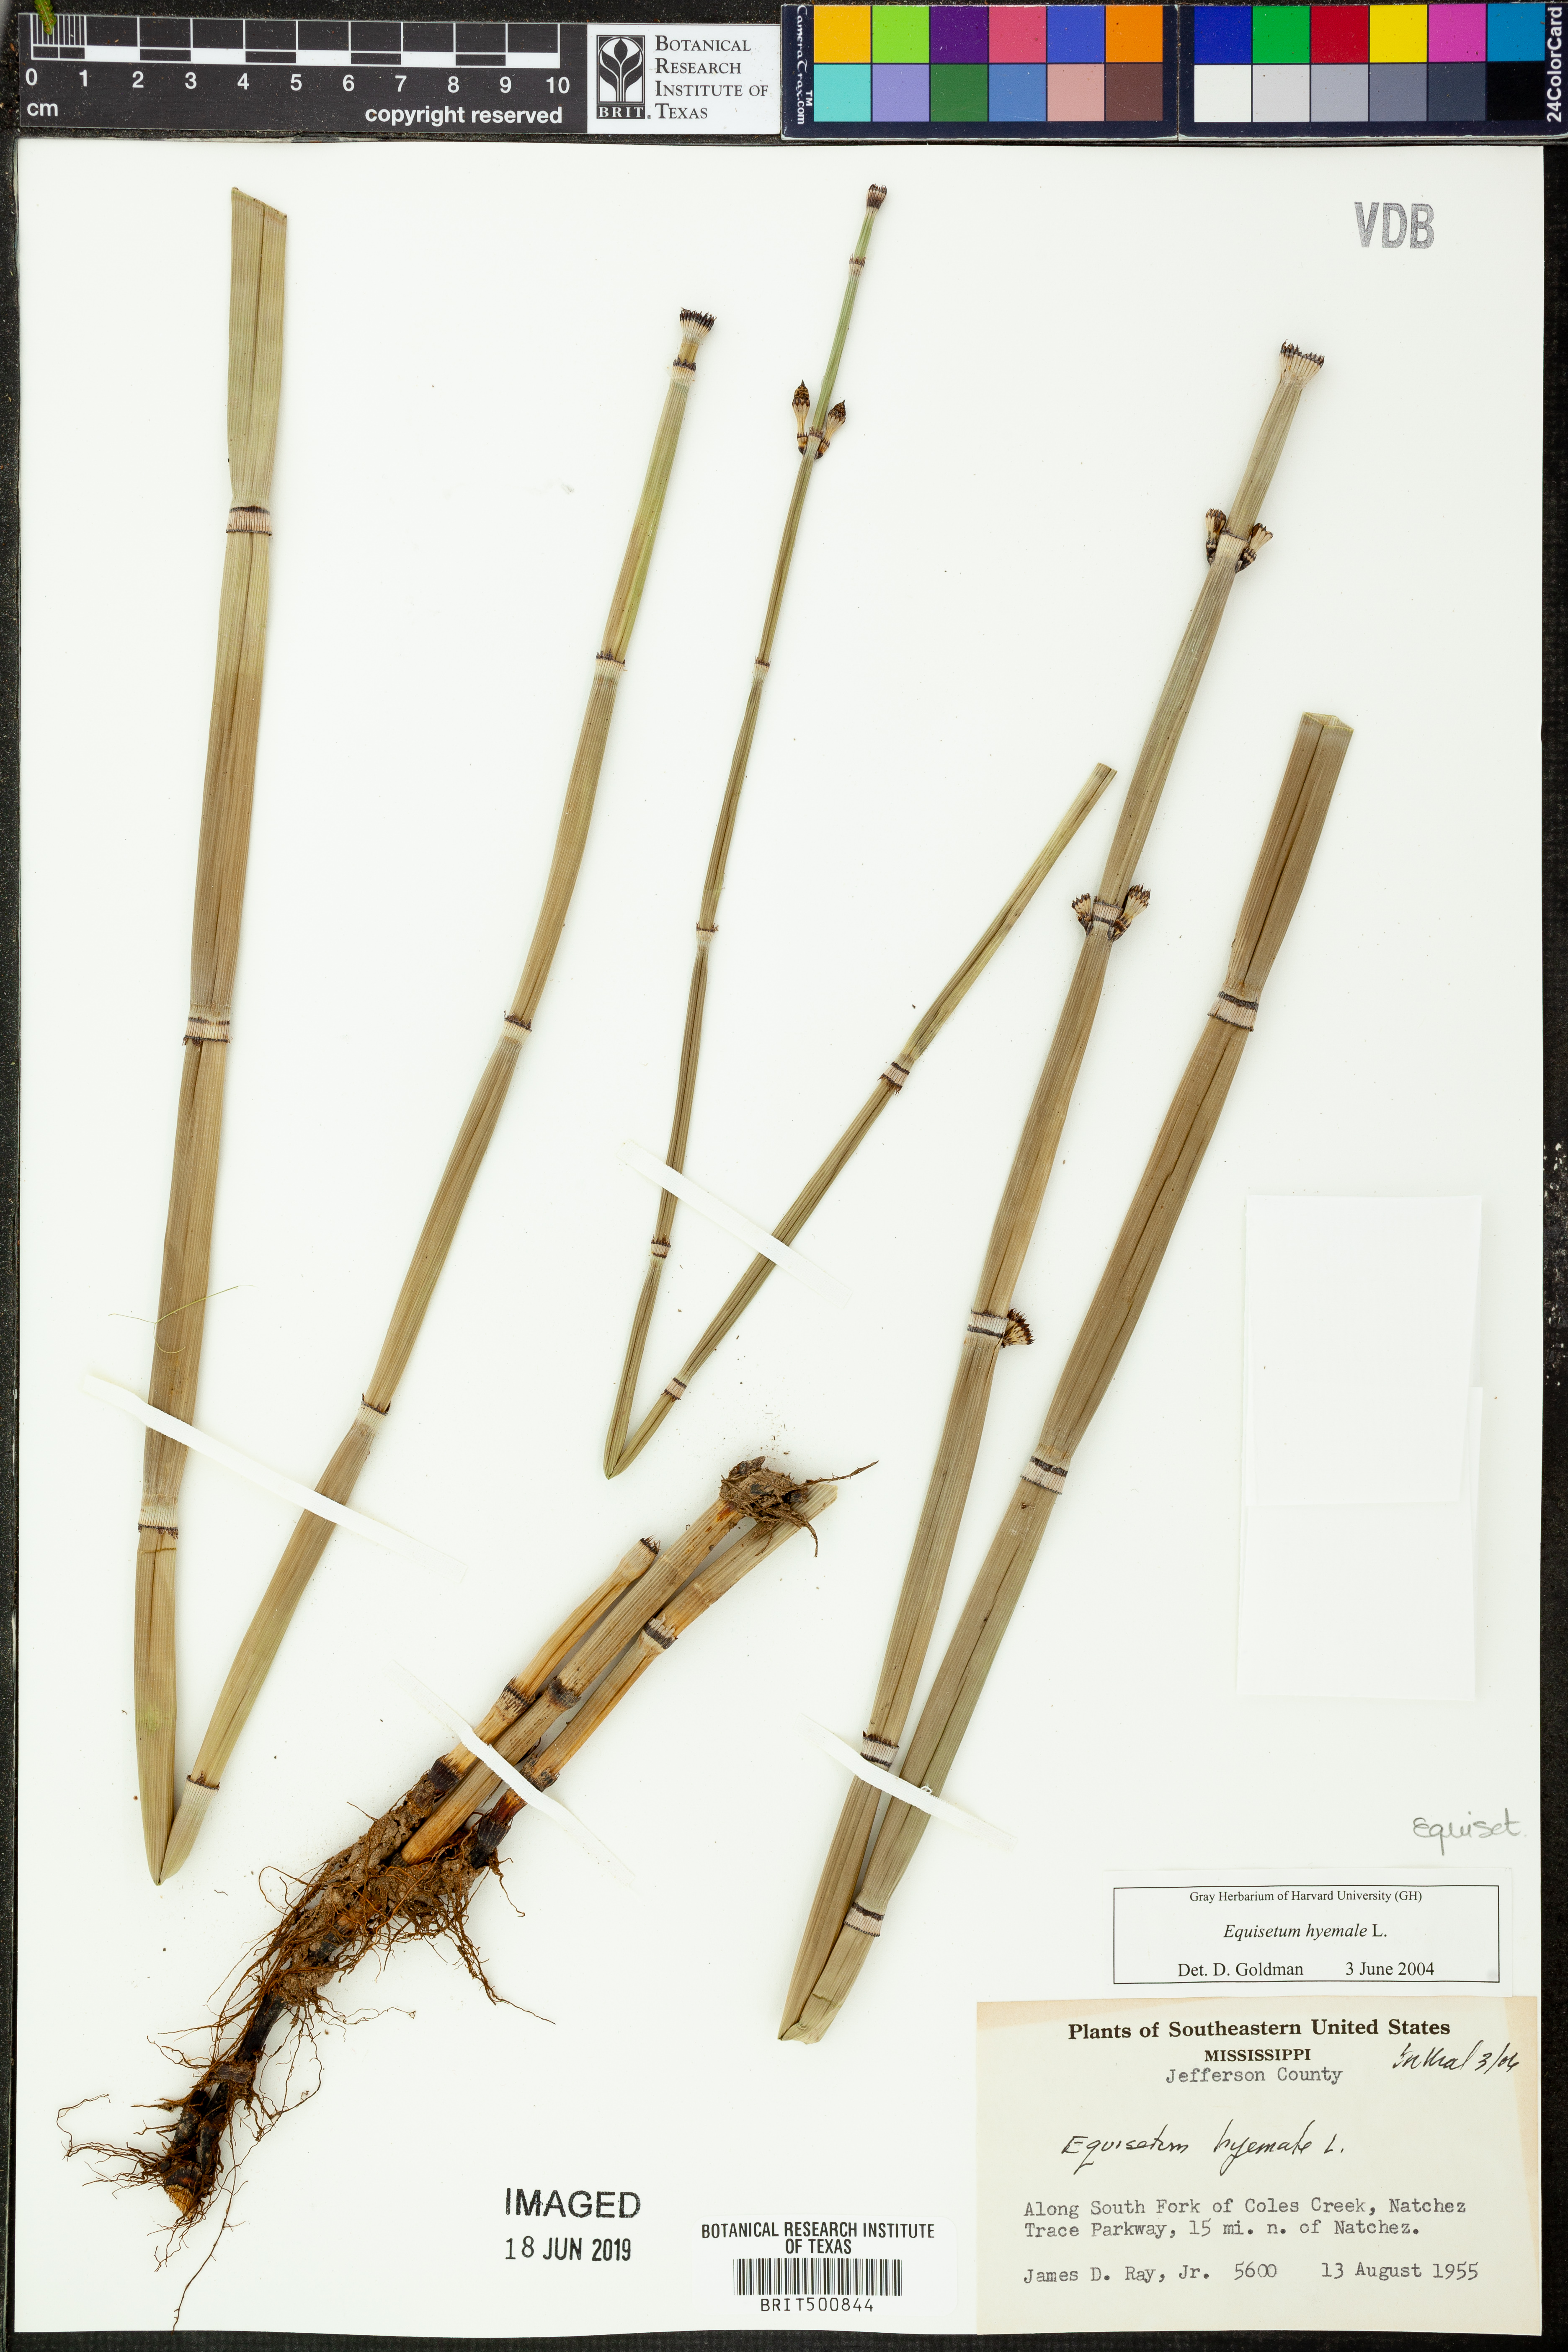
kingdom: Plantae
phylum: Tracheophyta
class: Polypodiopsida
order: Equisetales
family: Equisetaceae
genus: Equisetum
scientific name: Equisetum hyemale
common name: Rough horsetail
